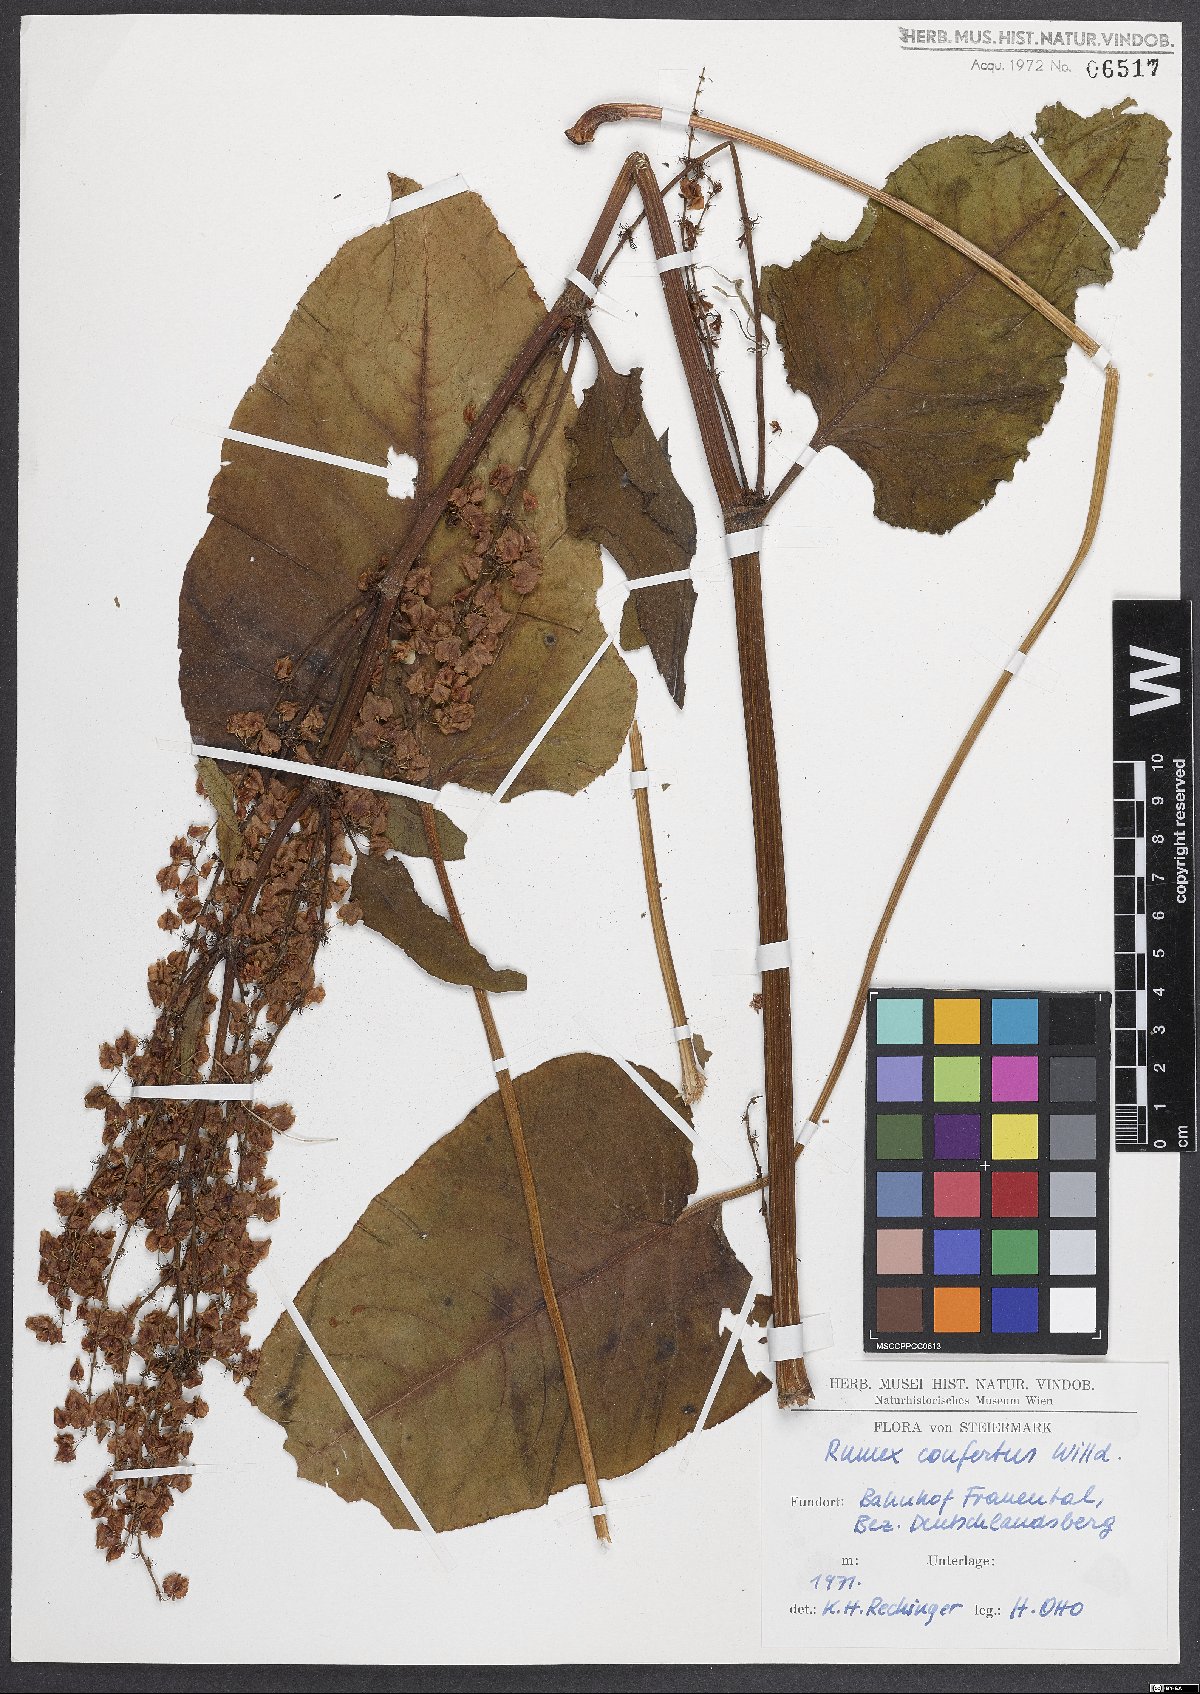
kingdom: Plantae
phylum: Tracheophyta
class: Magnoliopsida
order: Caryophyllales
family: Polygonaceae
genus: Rumex
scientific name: Rumex confertus
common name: Russian dock
